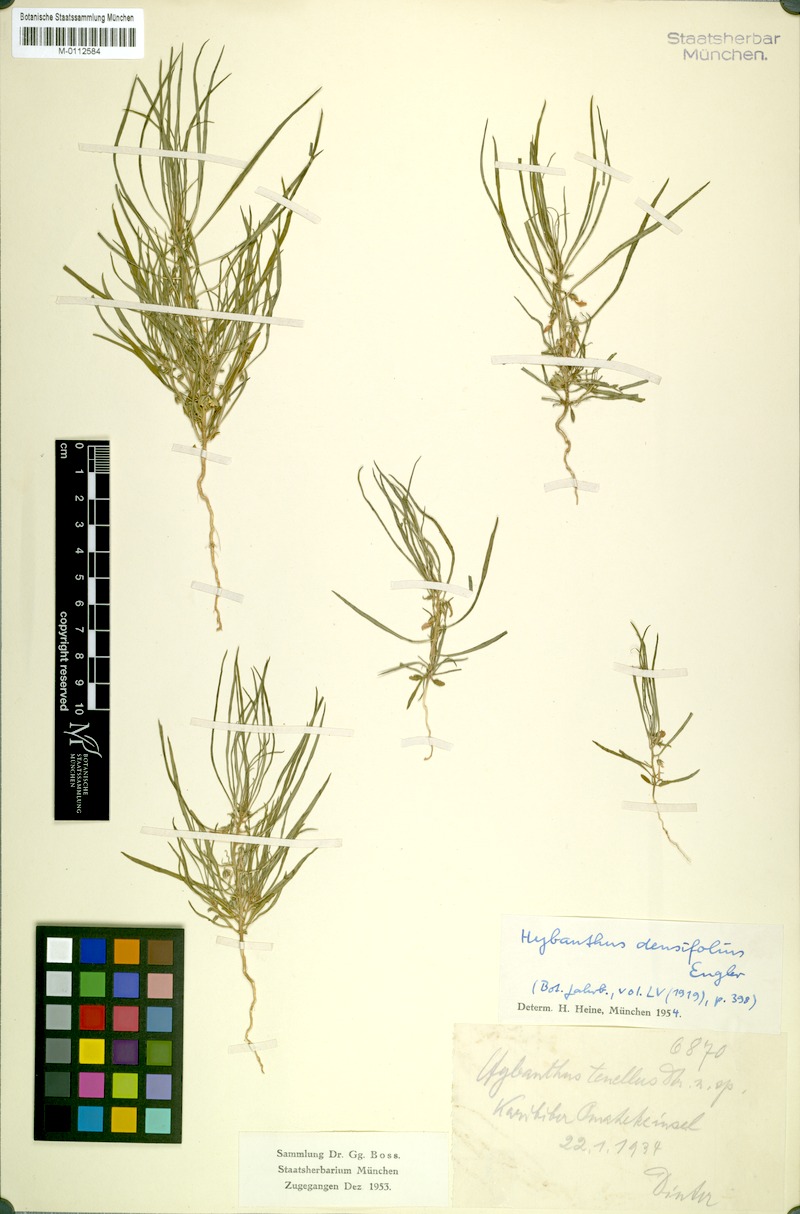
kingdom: Plantae
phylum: Tracheophyta
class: Magnoliopsida
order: Malpighiales
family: Violaceae
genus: Pigea
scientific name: Pigea densifolia
